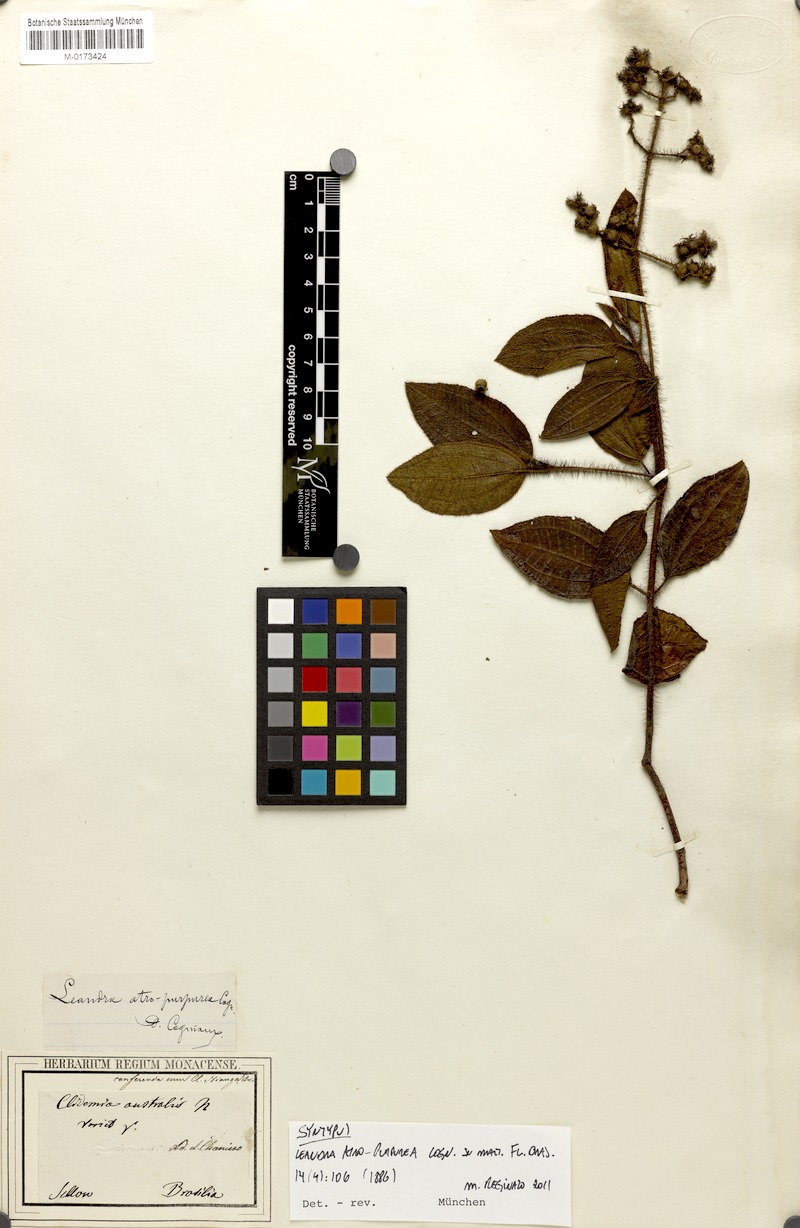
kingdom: Plantae
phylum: Tracheophyta
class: Magnoliopsida
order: Myrtales
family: Melastomataceae
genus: Miconia
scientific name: Miconia australis
